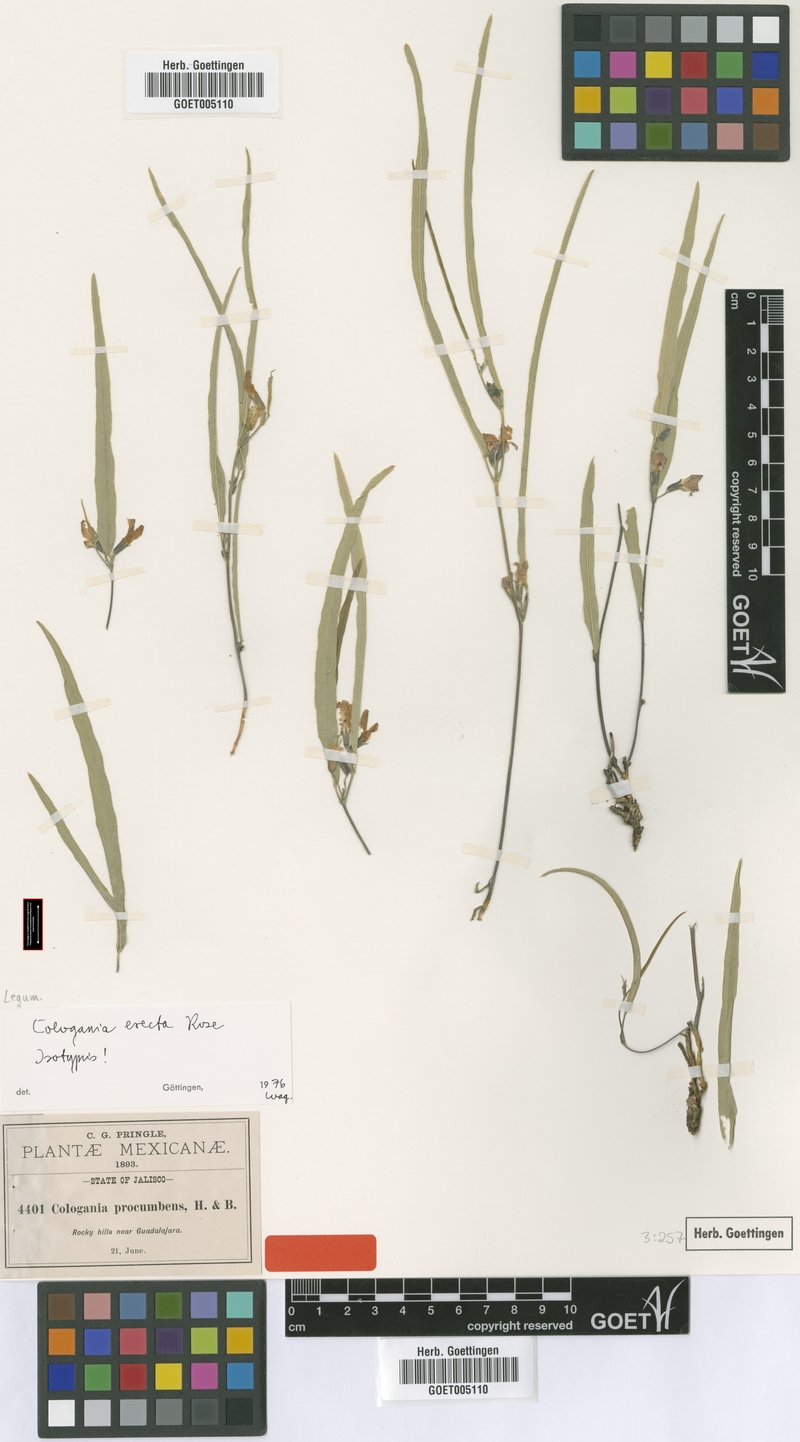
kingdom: Plantae
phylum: Tracheophyta
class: Magnoliopsida
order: Fabales
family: Fabaceae
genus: Cologania
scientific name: Cologania procumbens
